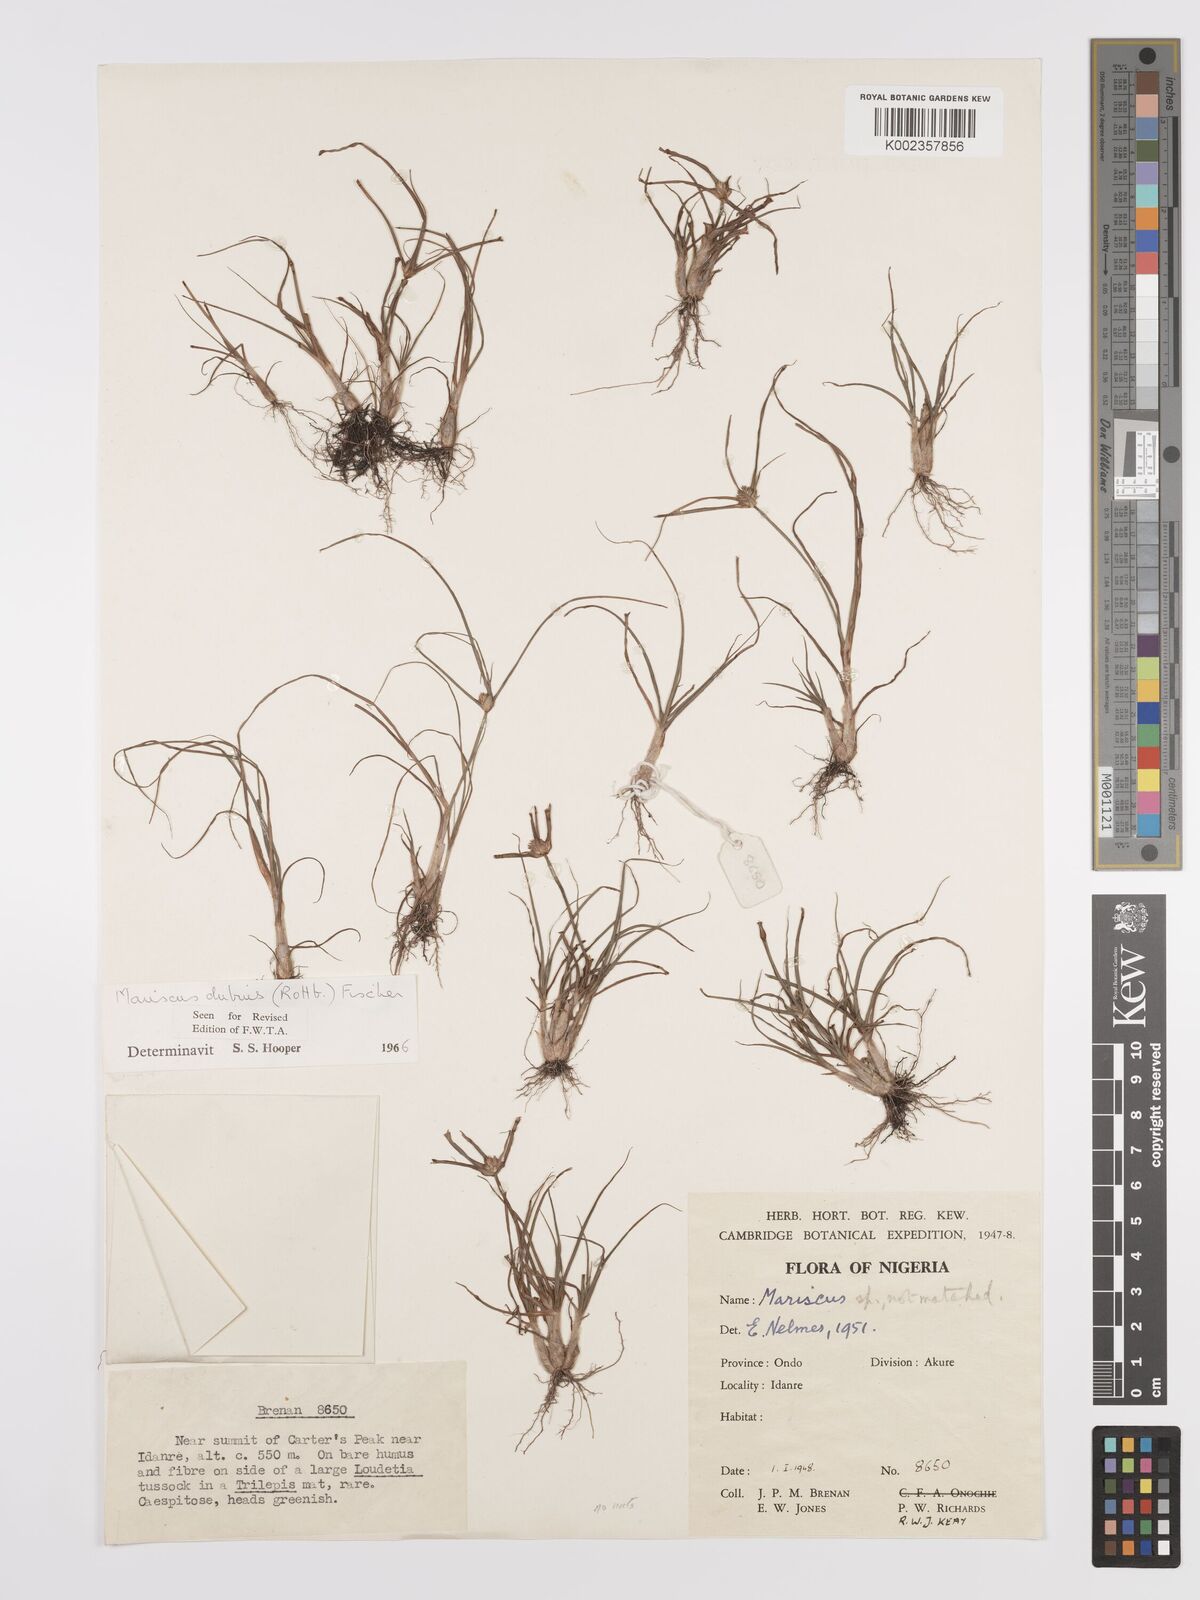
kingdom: Plantae
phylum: Tracheophyta
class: Liliopsida
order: Poales
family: Cyperaceae
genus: Cyperus
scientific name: Cyperus dubius
